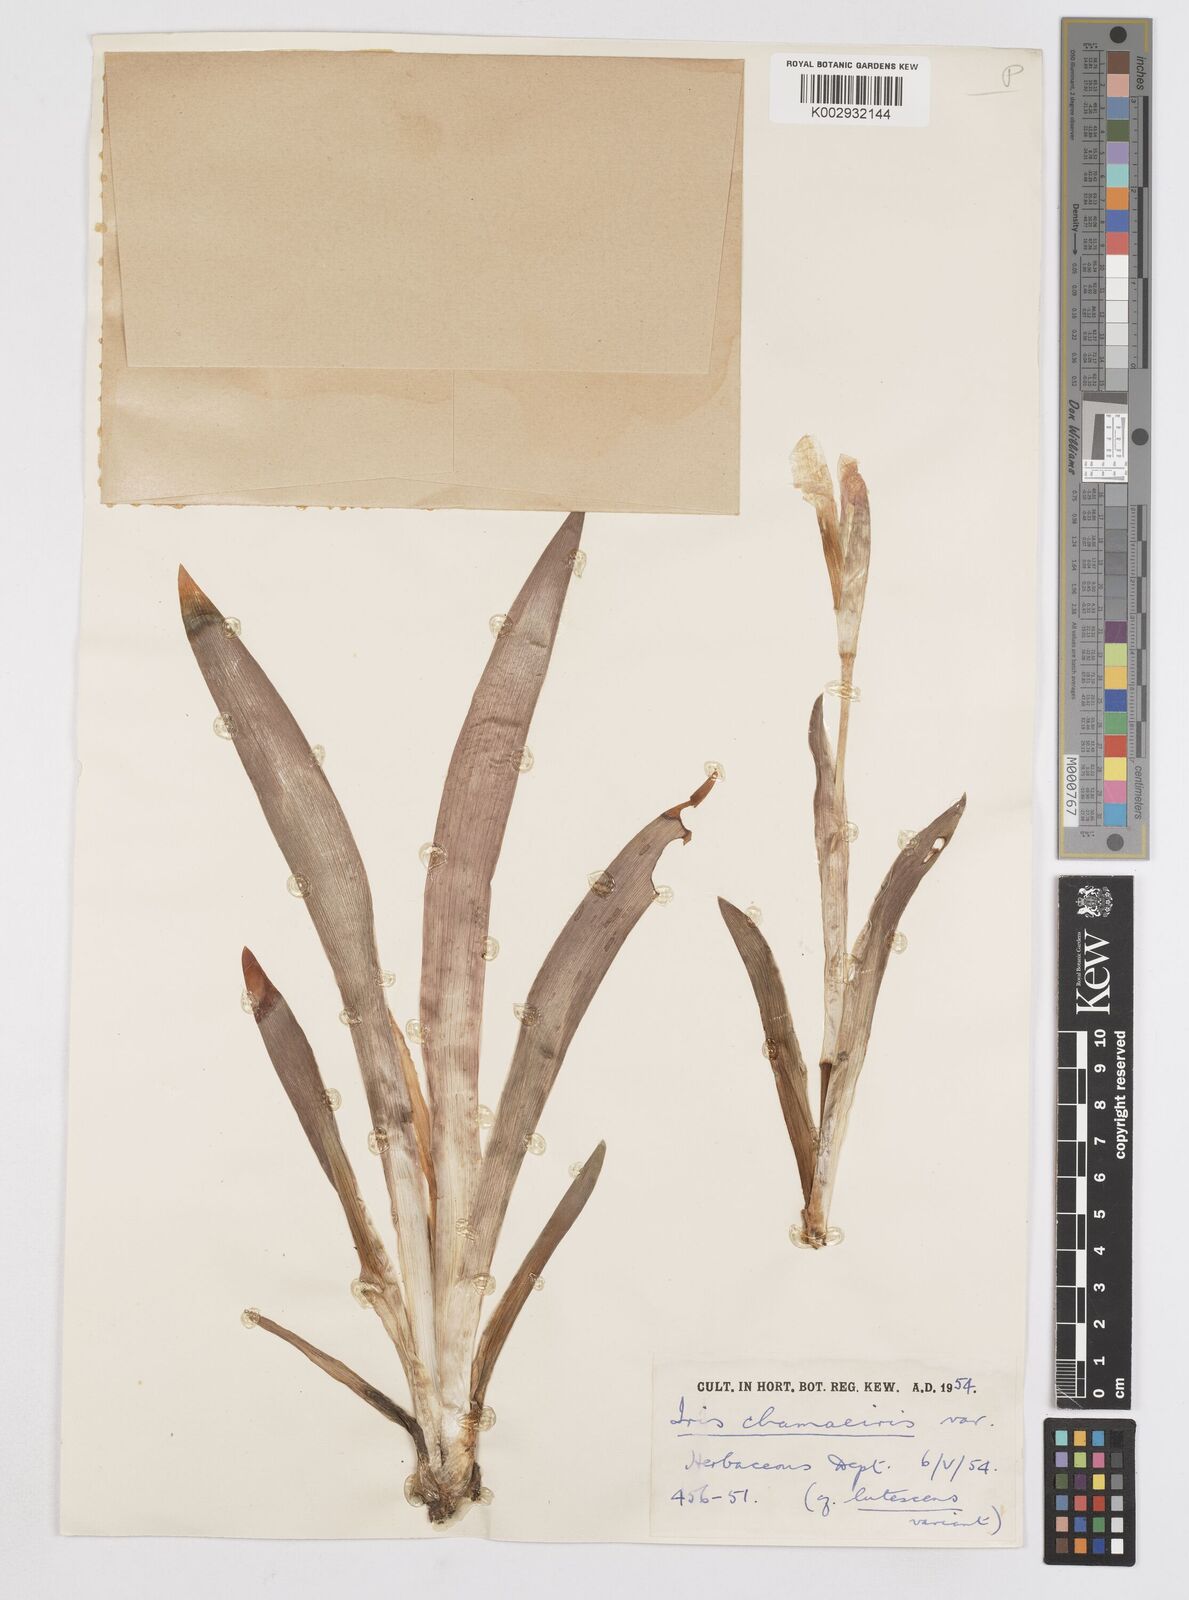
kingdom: Plantae
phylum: Tracheophyta
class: Liliopsida
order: Asparagales
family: Iridaceae
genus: Iris
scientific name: Iris lutescens
